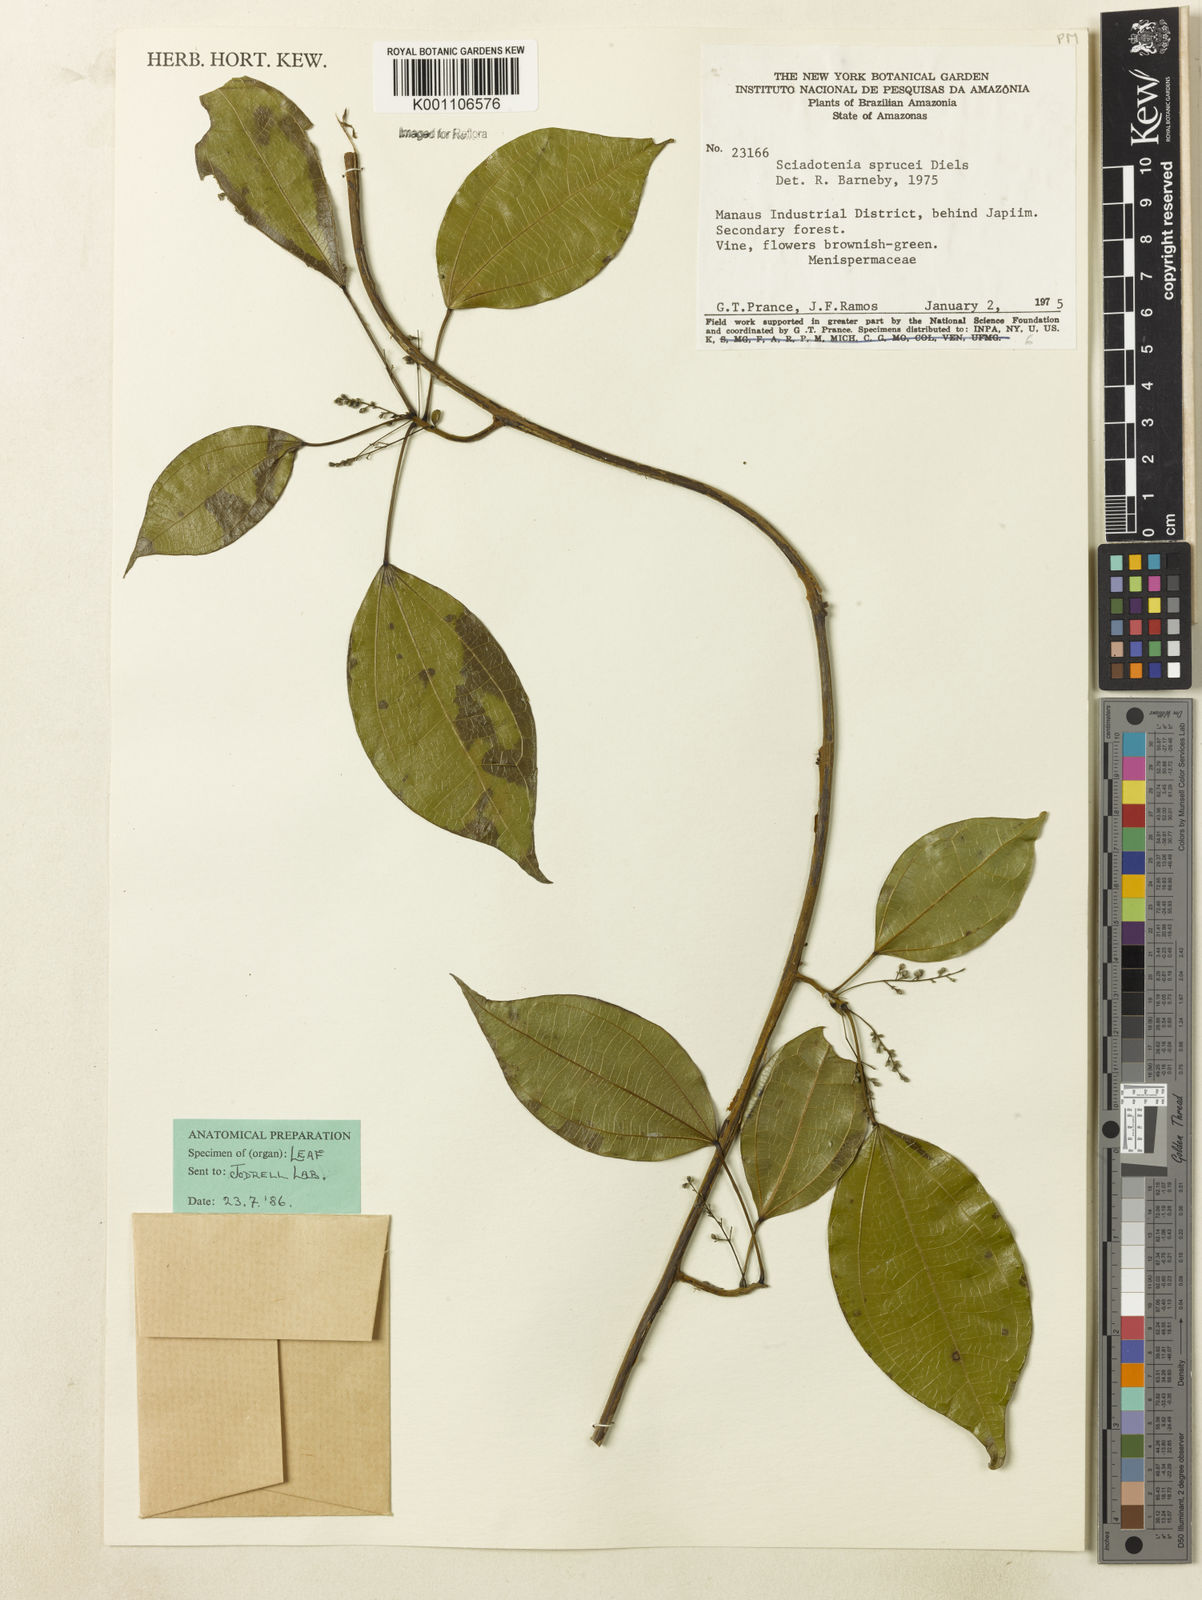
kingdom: Plantae
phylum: Tracheophyta
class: Magnoliopsida
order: Ranunculales
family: Menispermaceae
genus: Sciadotenia
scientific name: Sciadotenia
